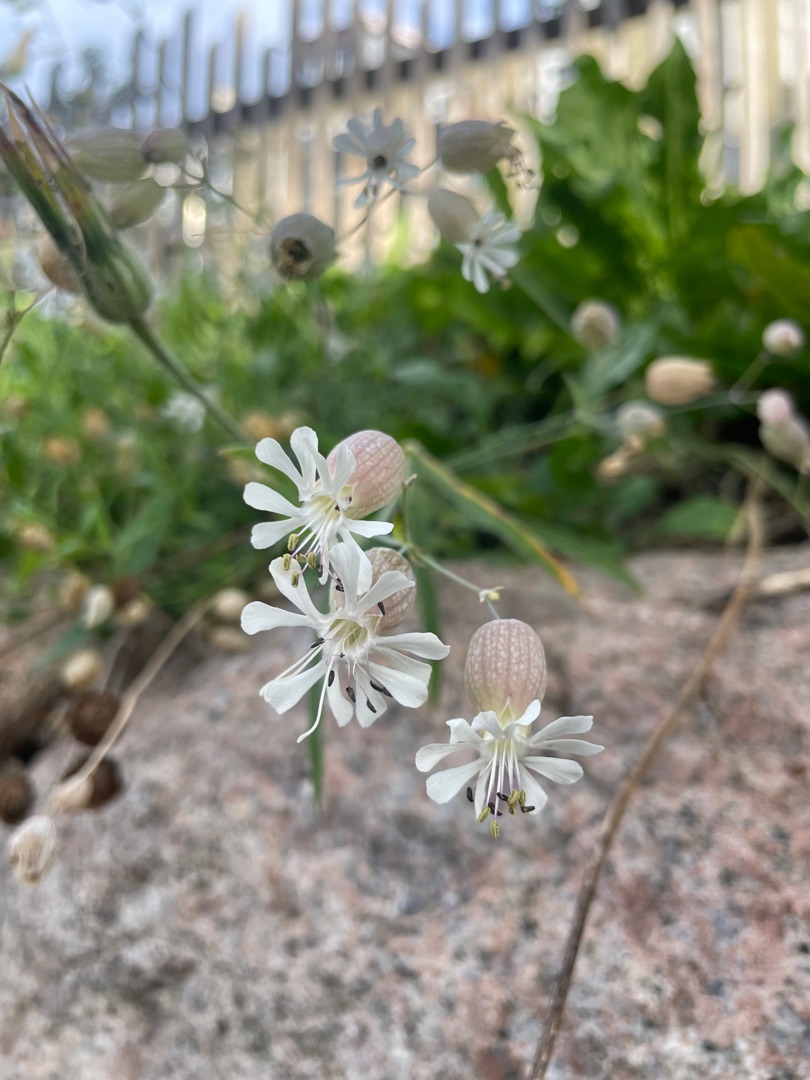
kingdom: Plantae
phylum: Tracheophyta
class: Magnoliopsida
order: Caryophyllales
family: Caryophyllaceae
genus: Silene
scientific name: Silene vulgaris
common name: Blæresmælde
